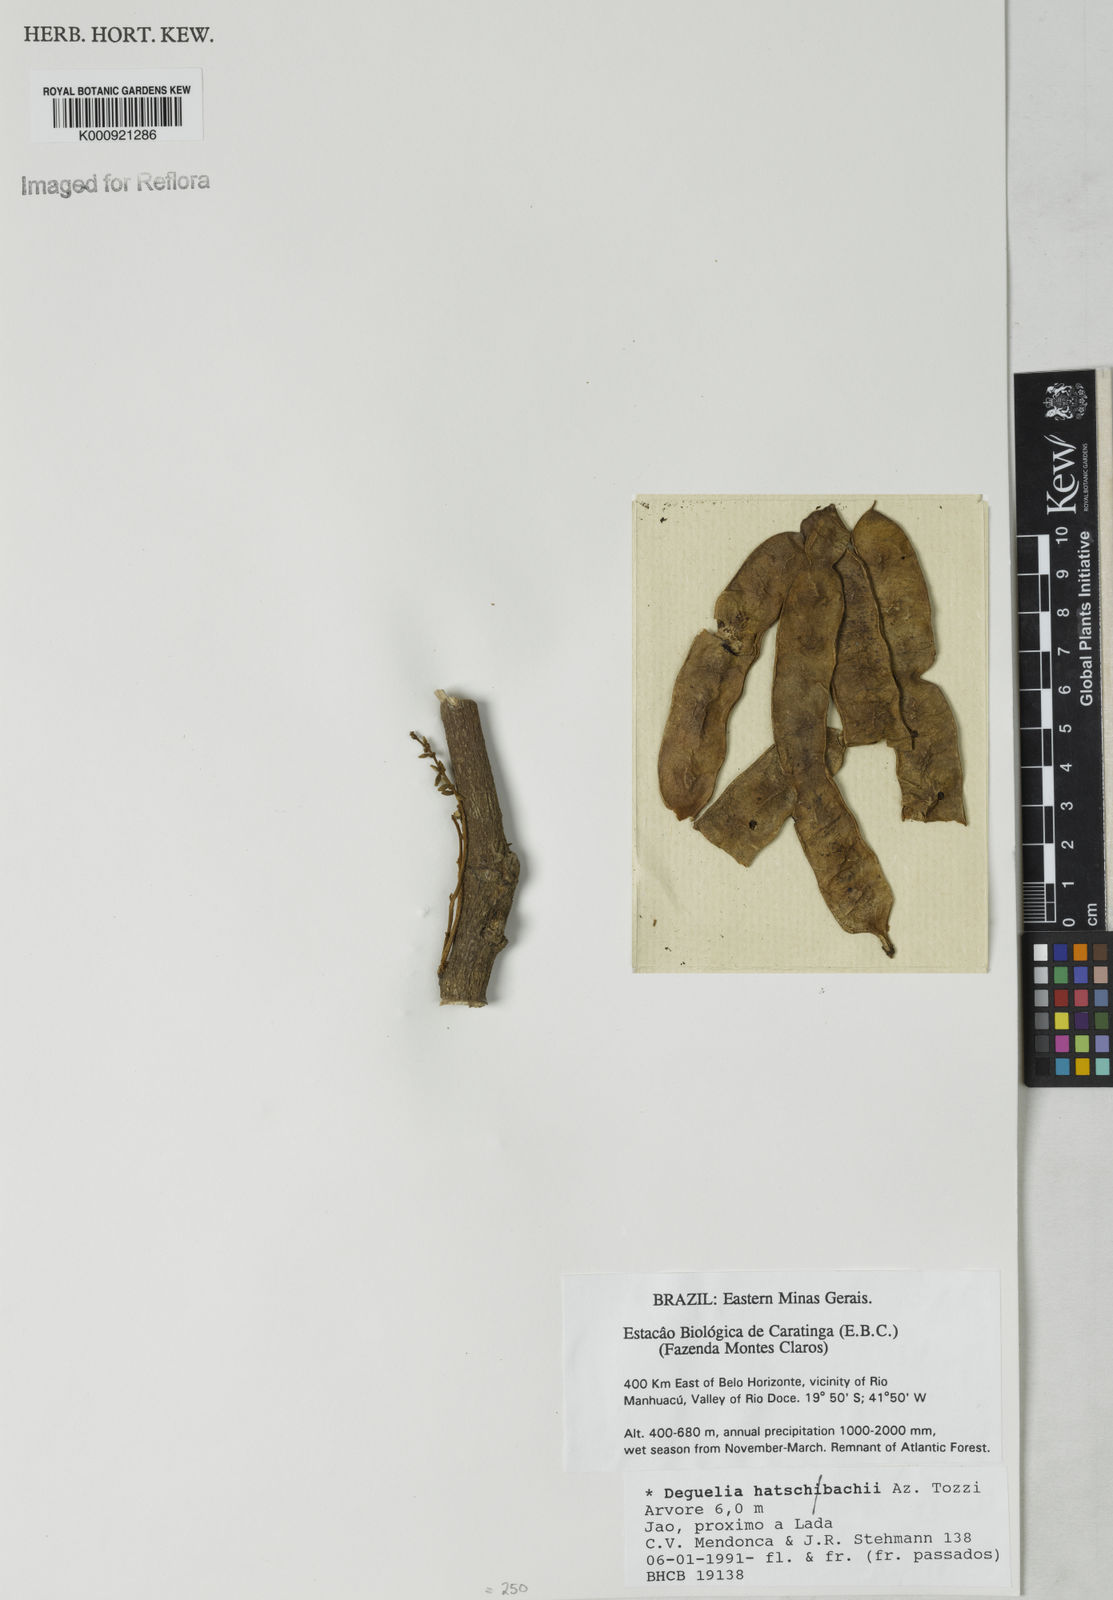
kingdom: Plantae
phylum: Tracheophyta
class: Magnoliopsida
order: Fabales
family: Fabaceae
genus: Deguelia
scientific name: Deguelia hatschbachii
